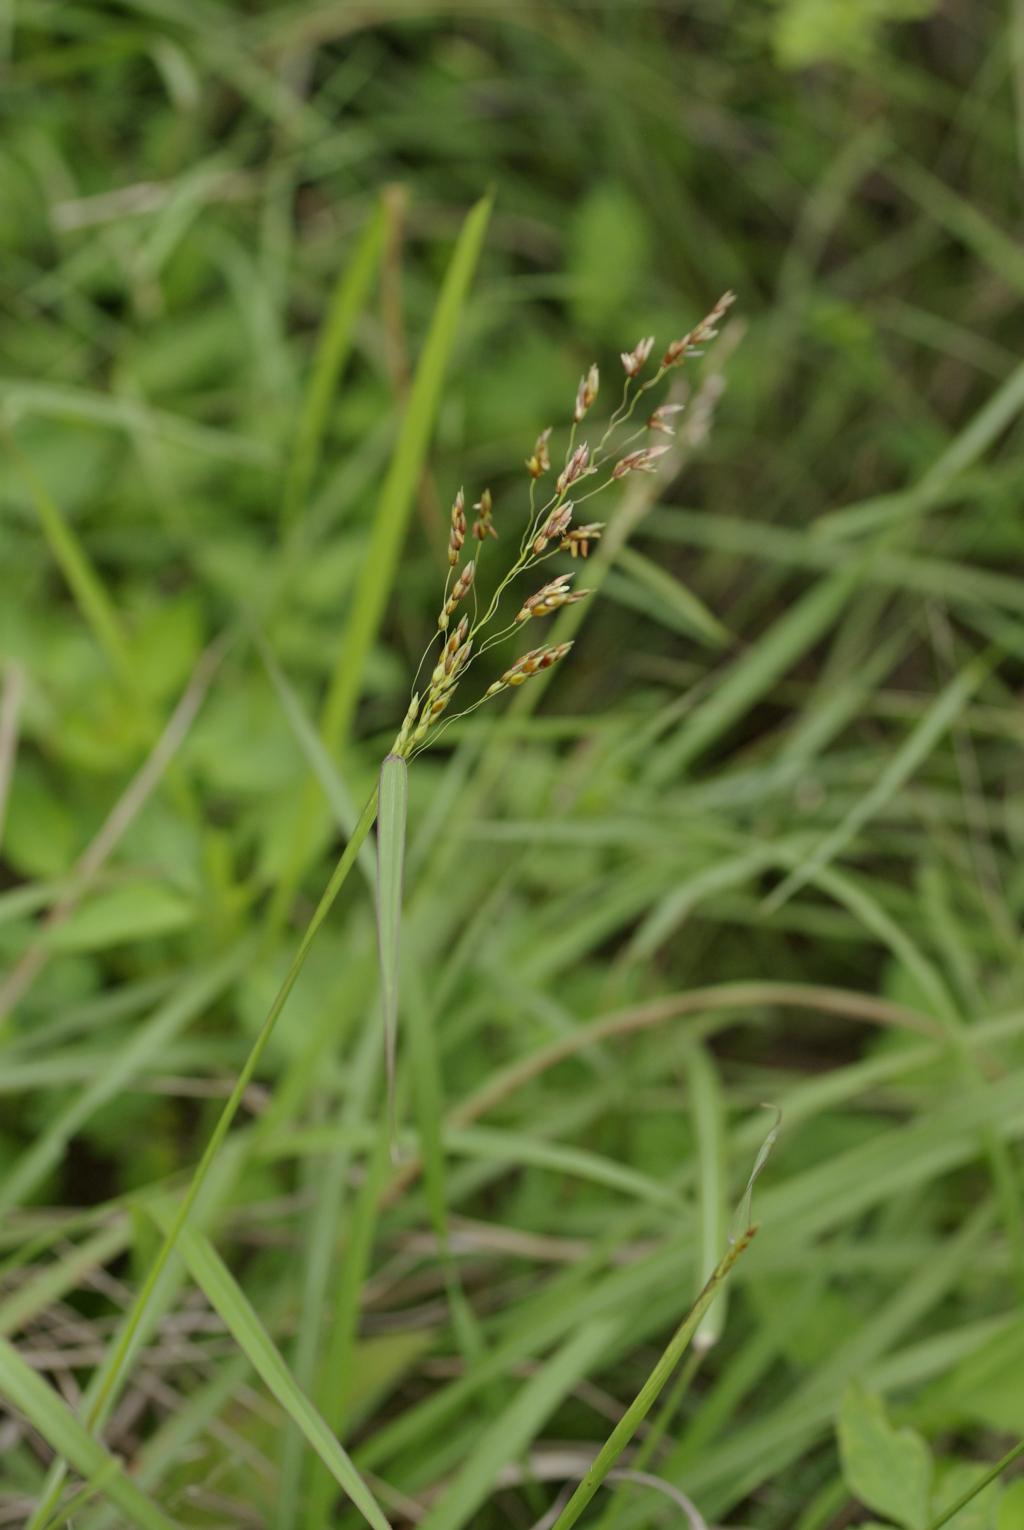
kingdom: Plantae
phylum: Tracheophyta
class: Liliopsida
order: Poales
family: Poaceae
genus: Sorghum
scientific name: Sorghum nitidum
